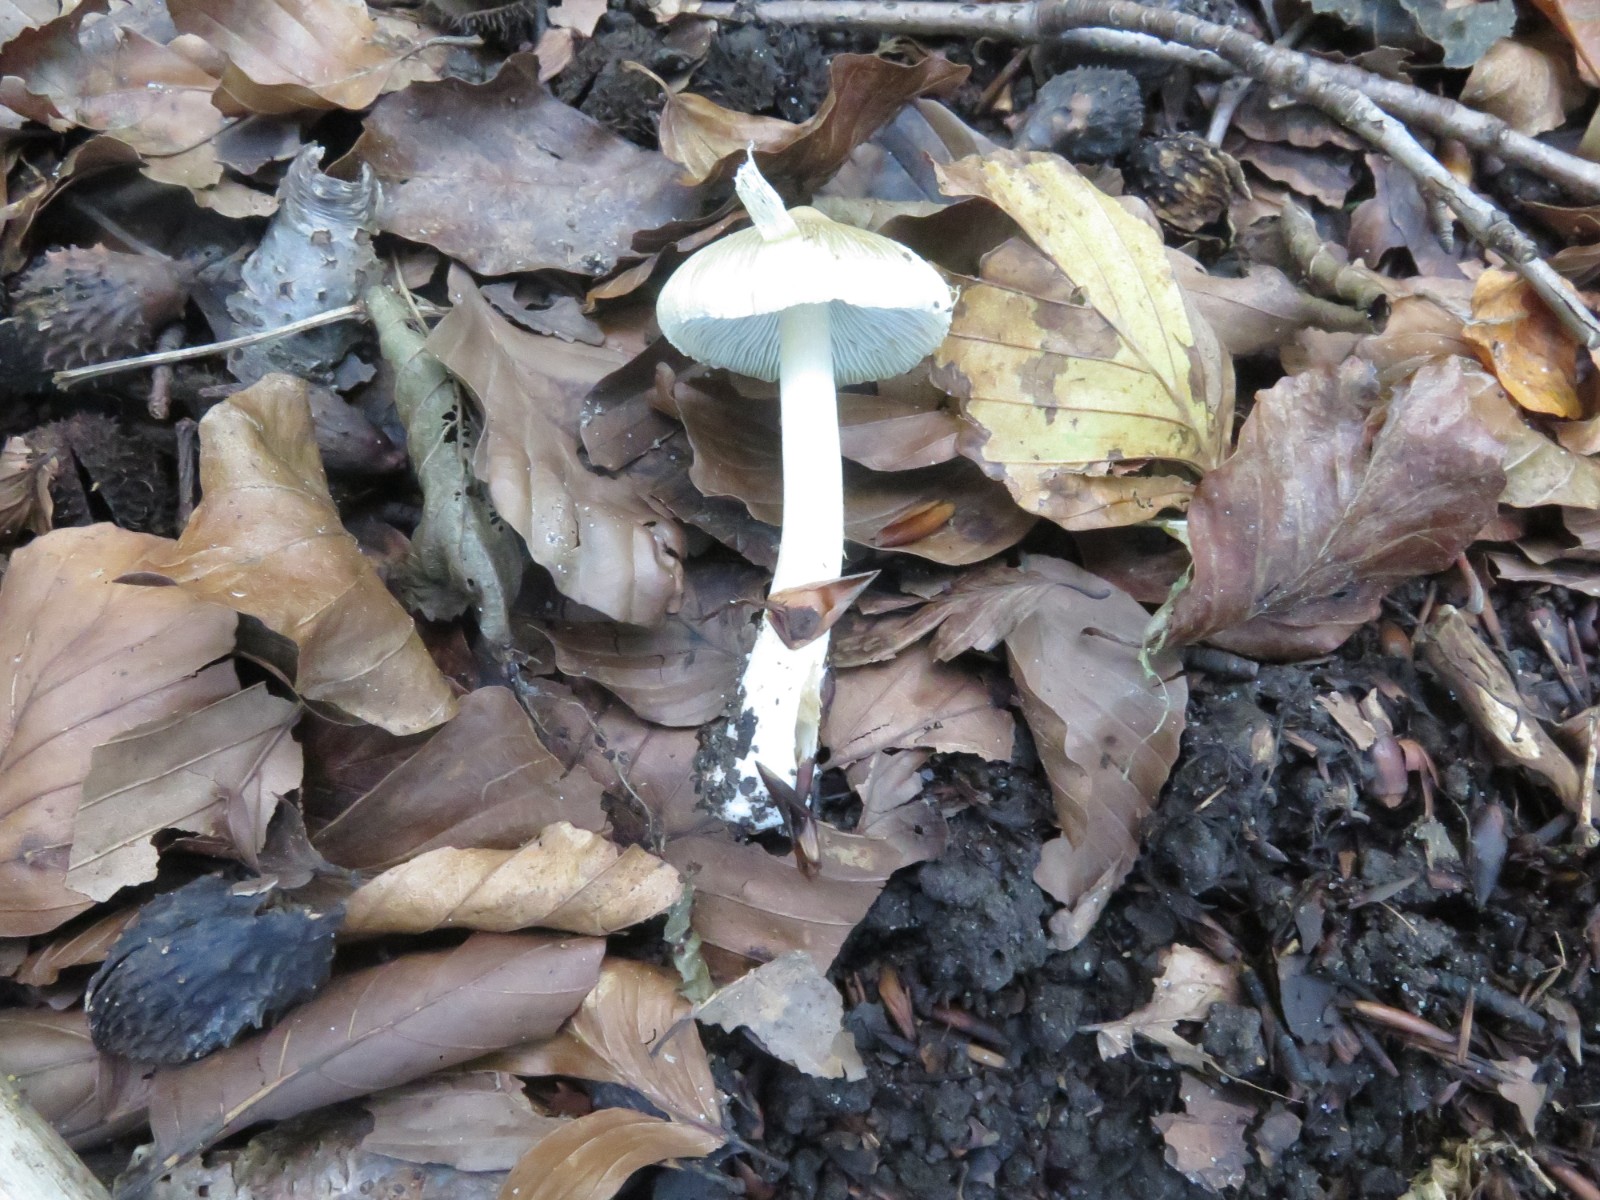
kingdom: Fungi
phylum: Basidiomycota
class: Agaricomycetes
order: Agaricales
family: Inocybaceae
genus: Pseudosperma
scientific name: Pseudosperma
